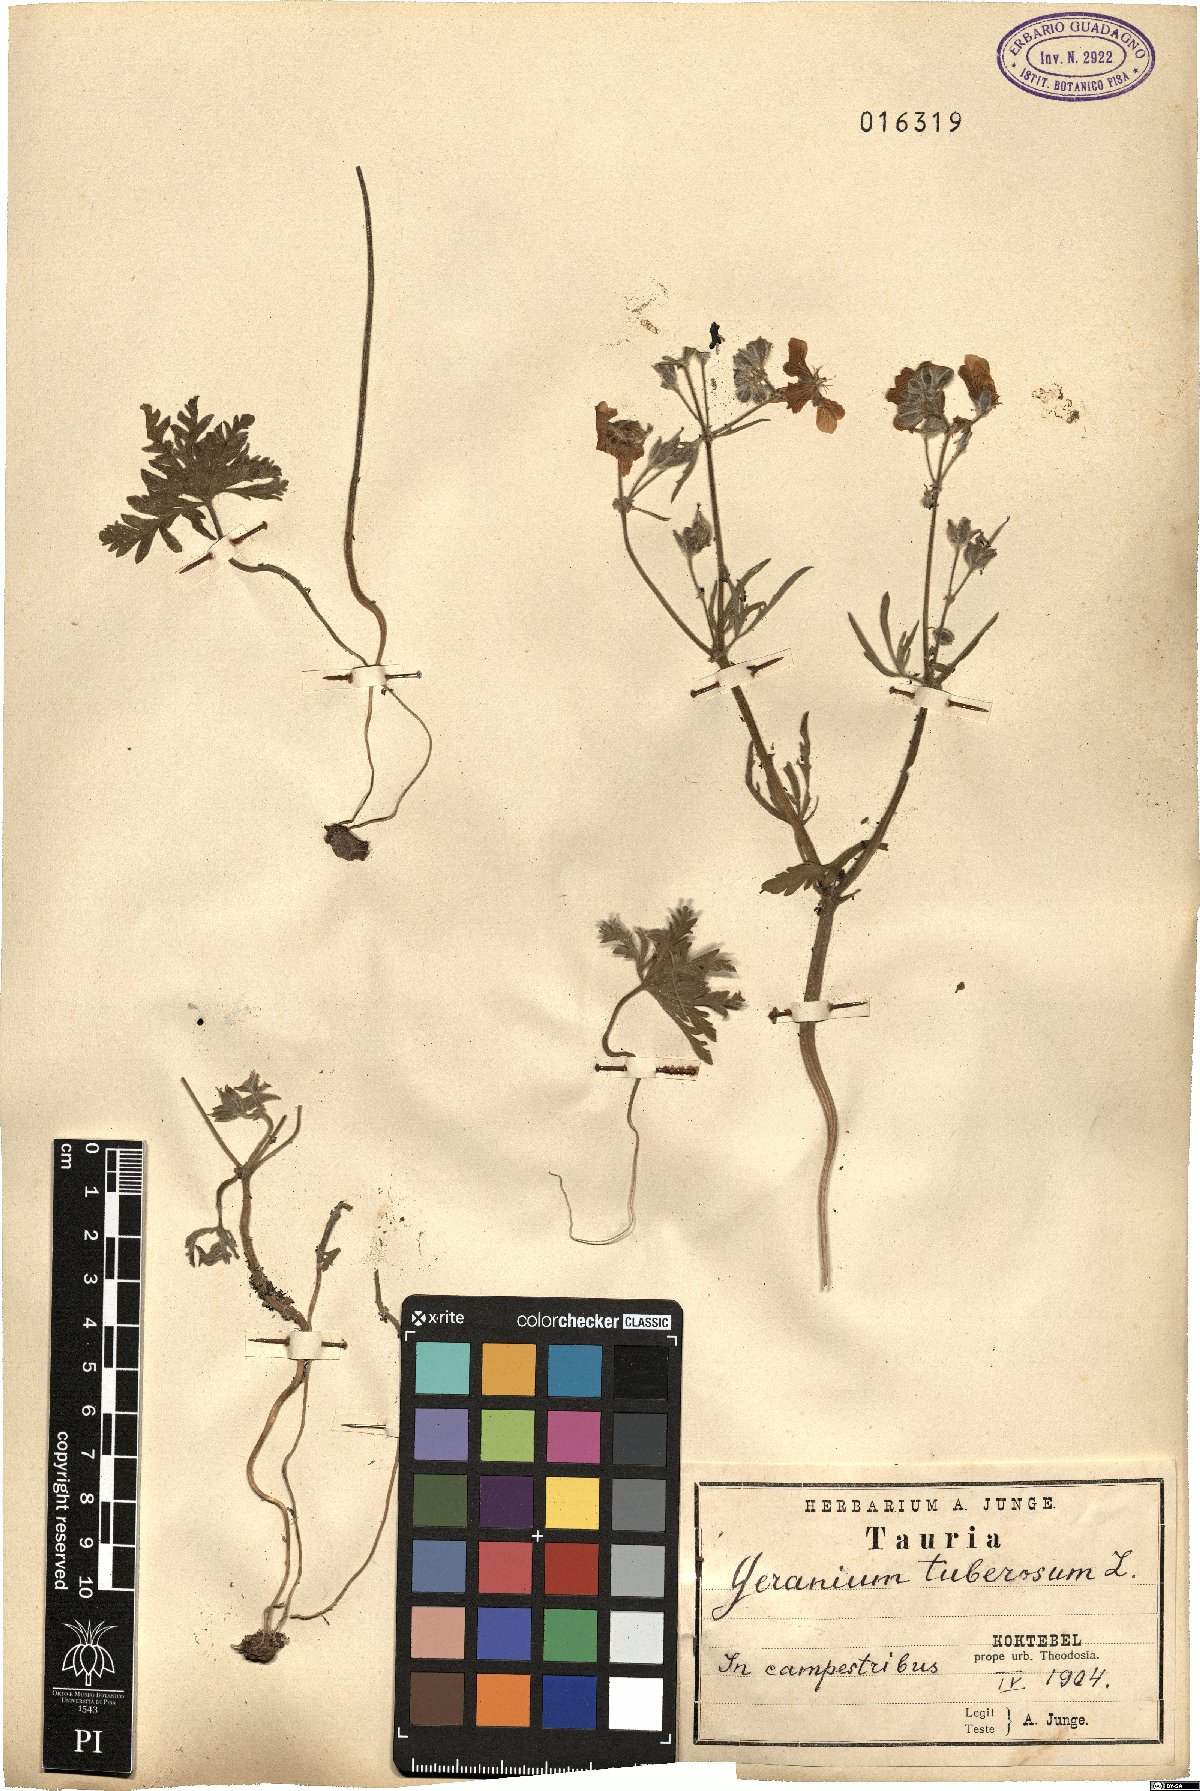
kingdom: Plantae
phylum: Tracheophyta
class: Magnoliopsida
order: Geraniales
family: Geraniaceae
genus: Geranium
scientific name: Geranium tuberosum
